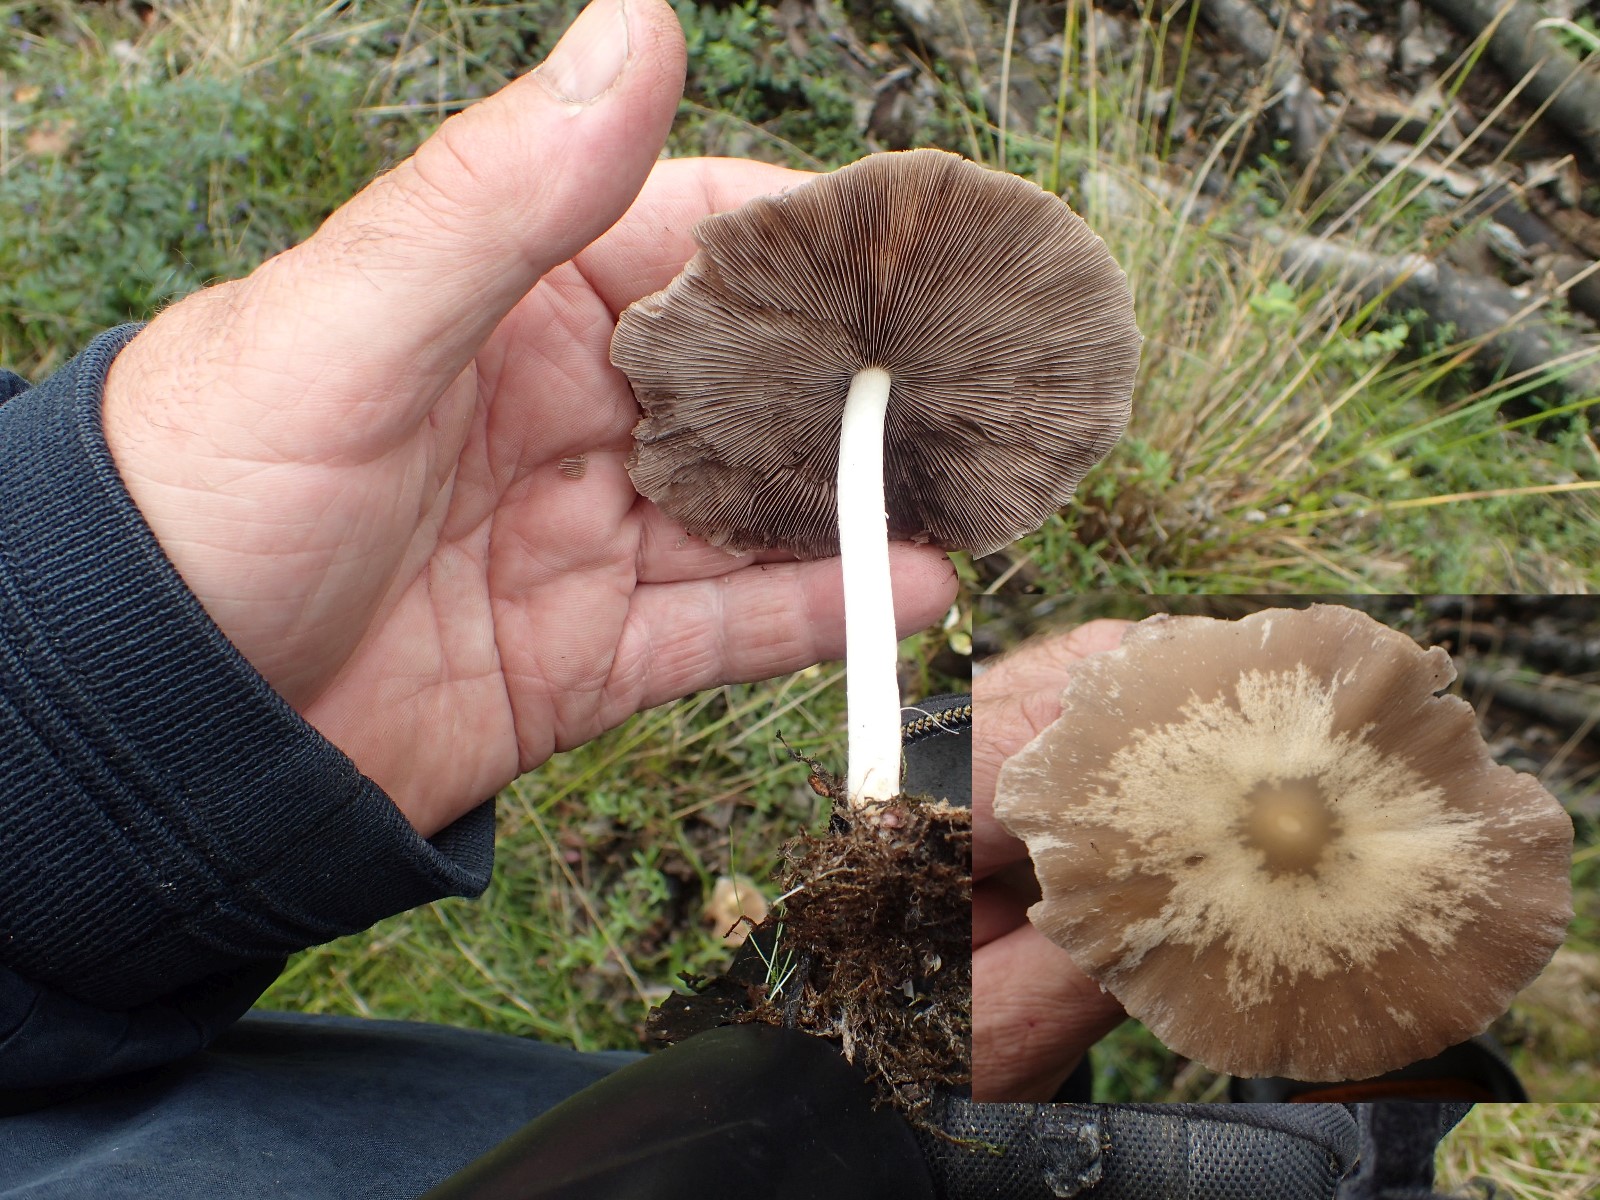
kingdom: Fungi
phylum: Basidiomycota
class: Agaricomycetes
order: Agaricales
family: Psathyrellaceae
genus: Psathyrella
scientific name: Psathyrella
